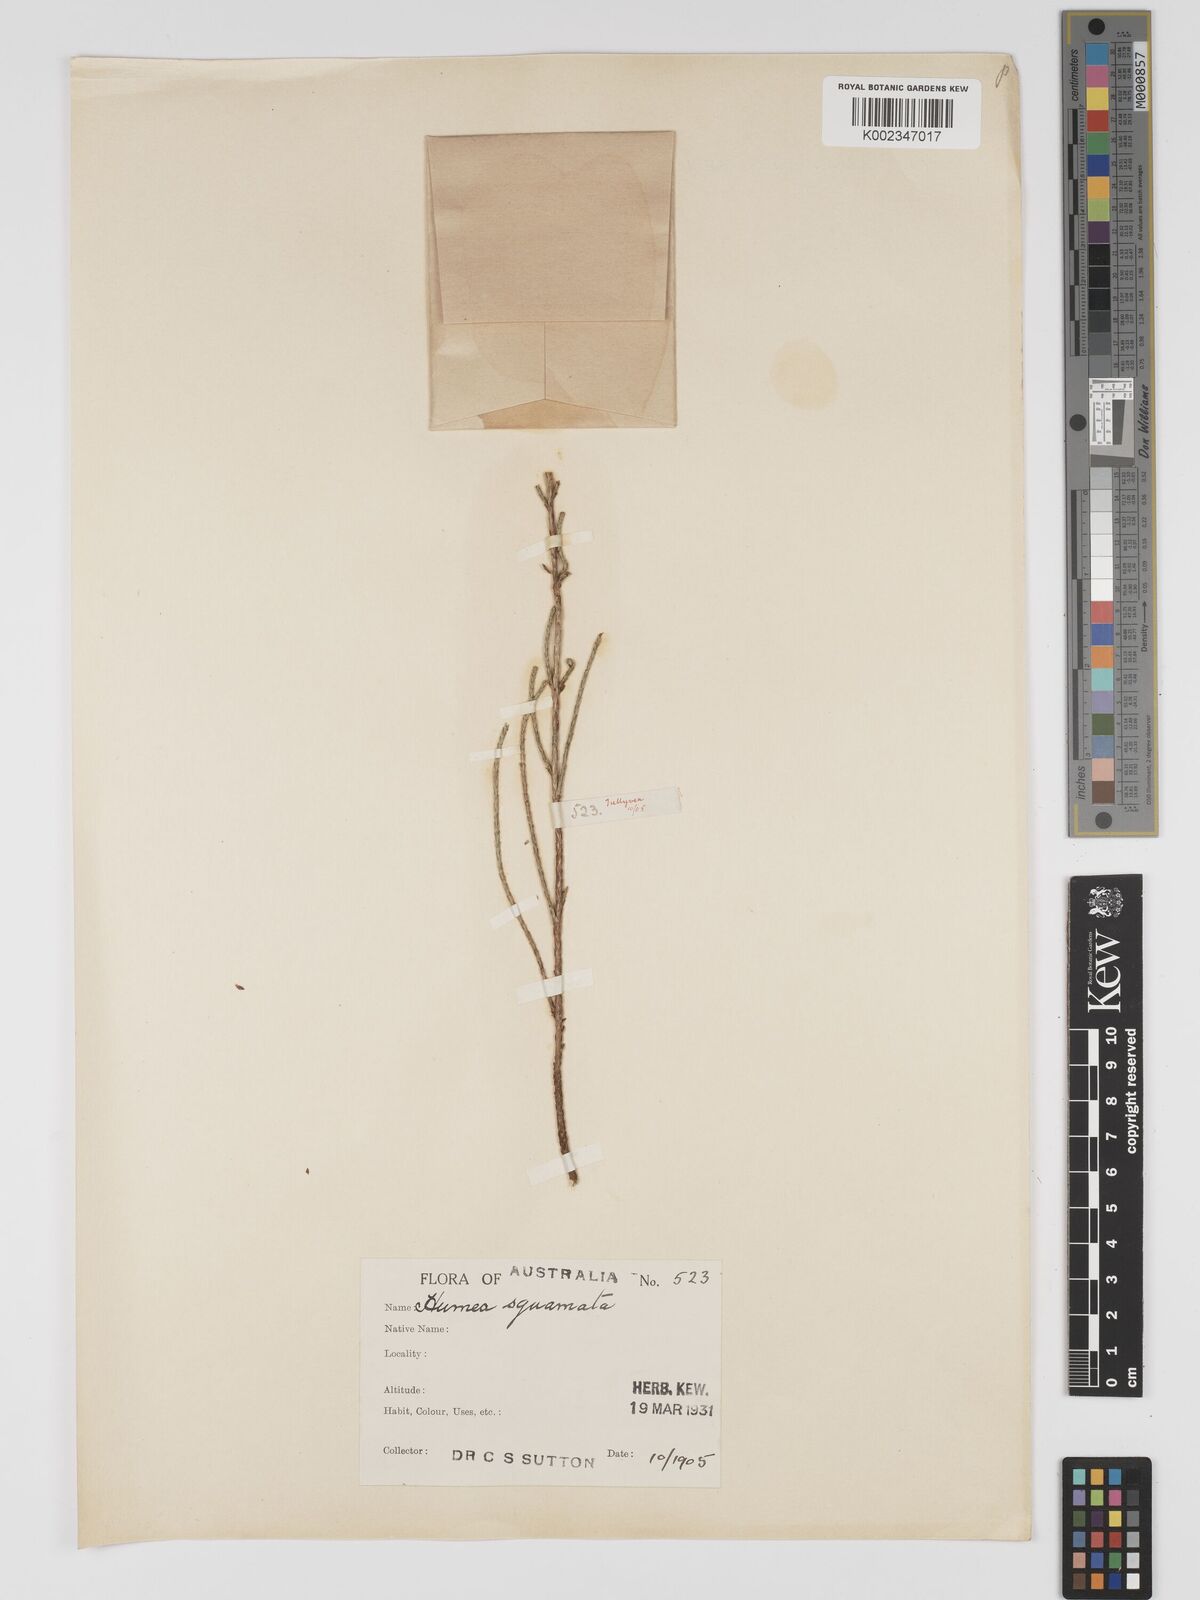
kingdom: Plantae
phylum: Tracheophyta
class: Magnoliopsida
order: Asterales
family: Asteraceae
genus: Haeckeria
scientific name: Haeckeria pholidota
